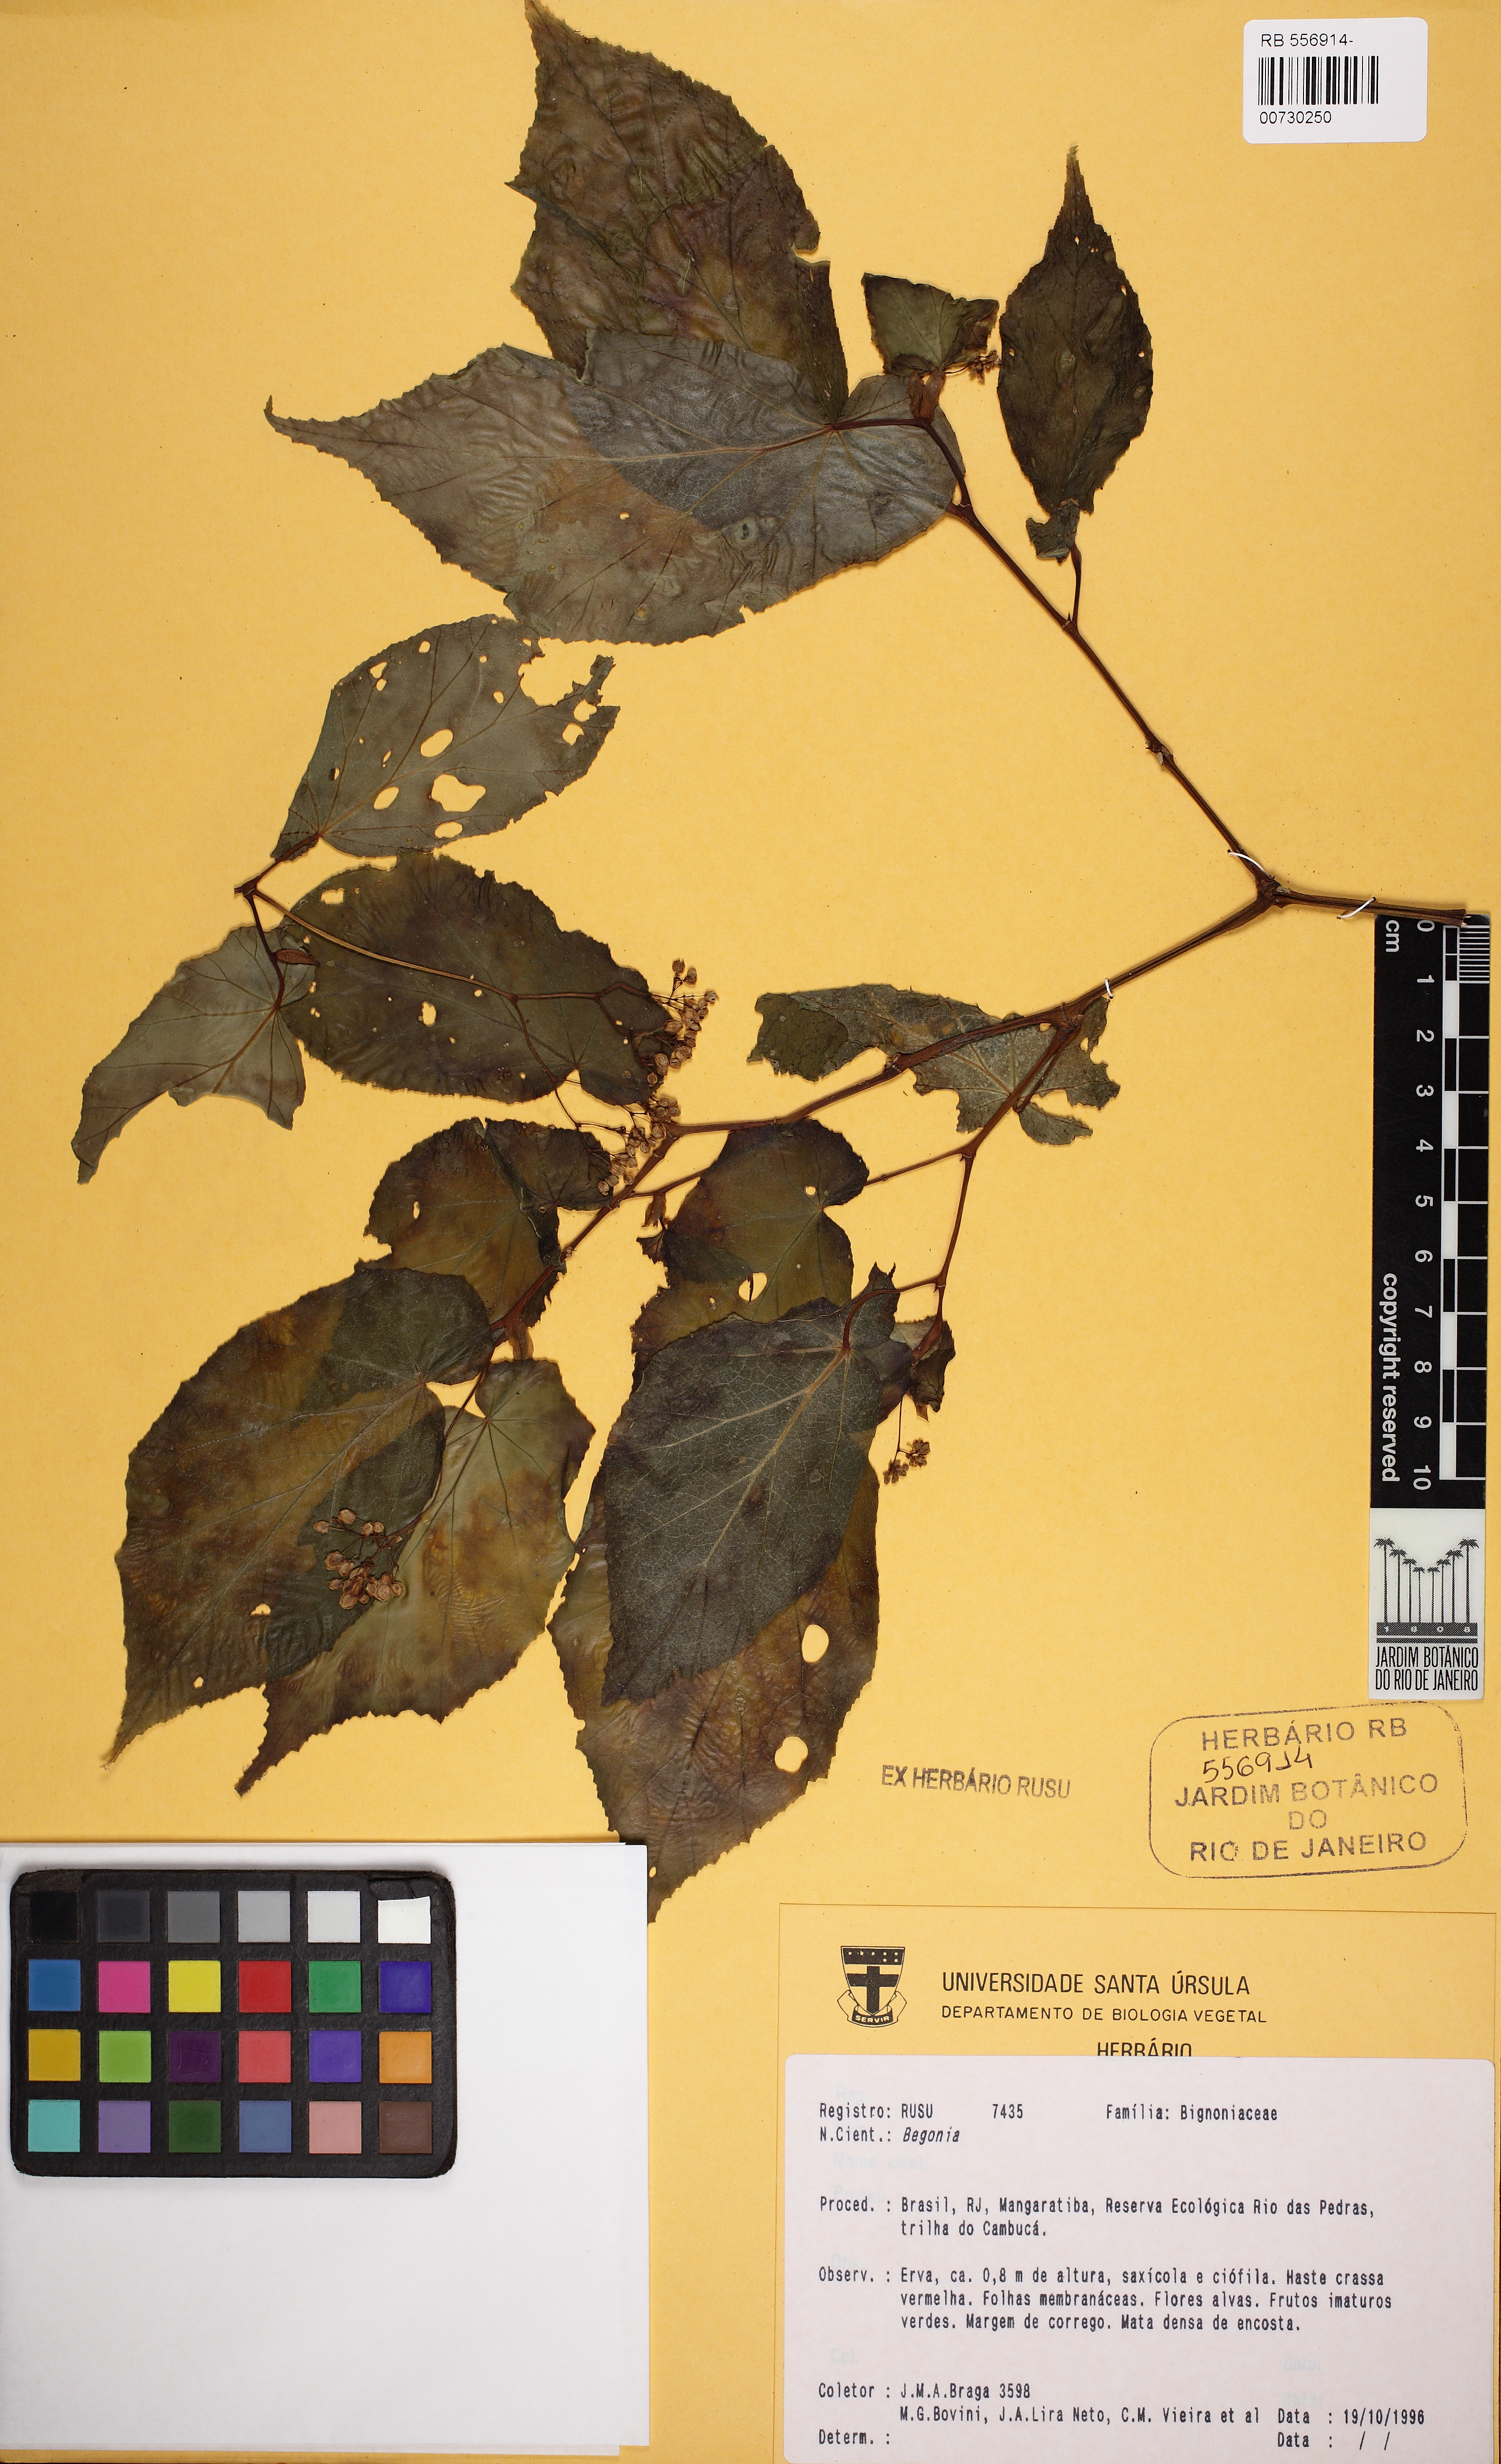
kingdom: Plantae
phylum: Tracheophyta
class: Magnoliopsida
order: Cucurbitales
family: Begoniaceae
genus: Begonia
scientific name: Begonia dietrichiana
